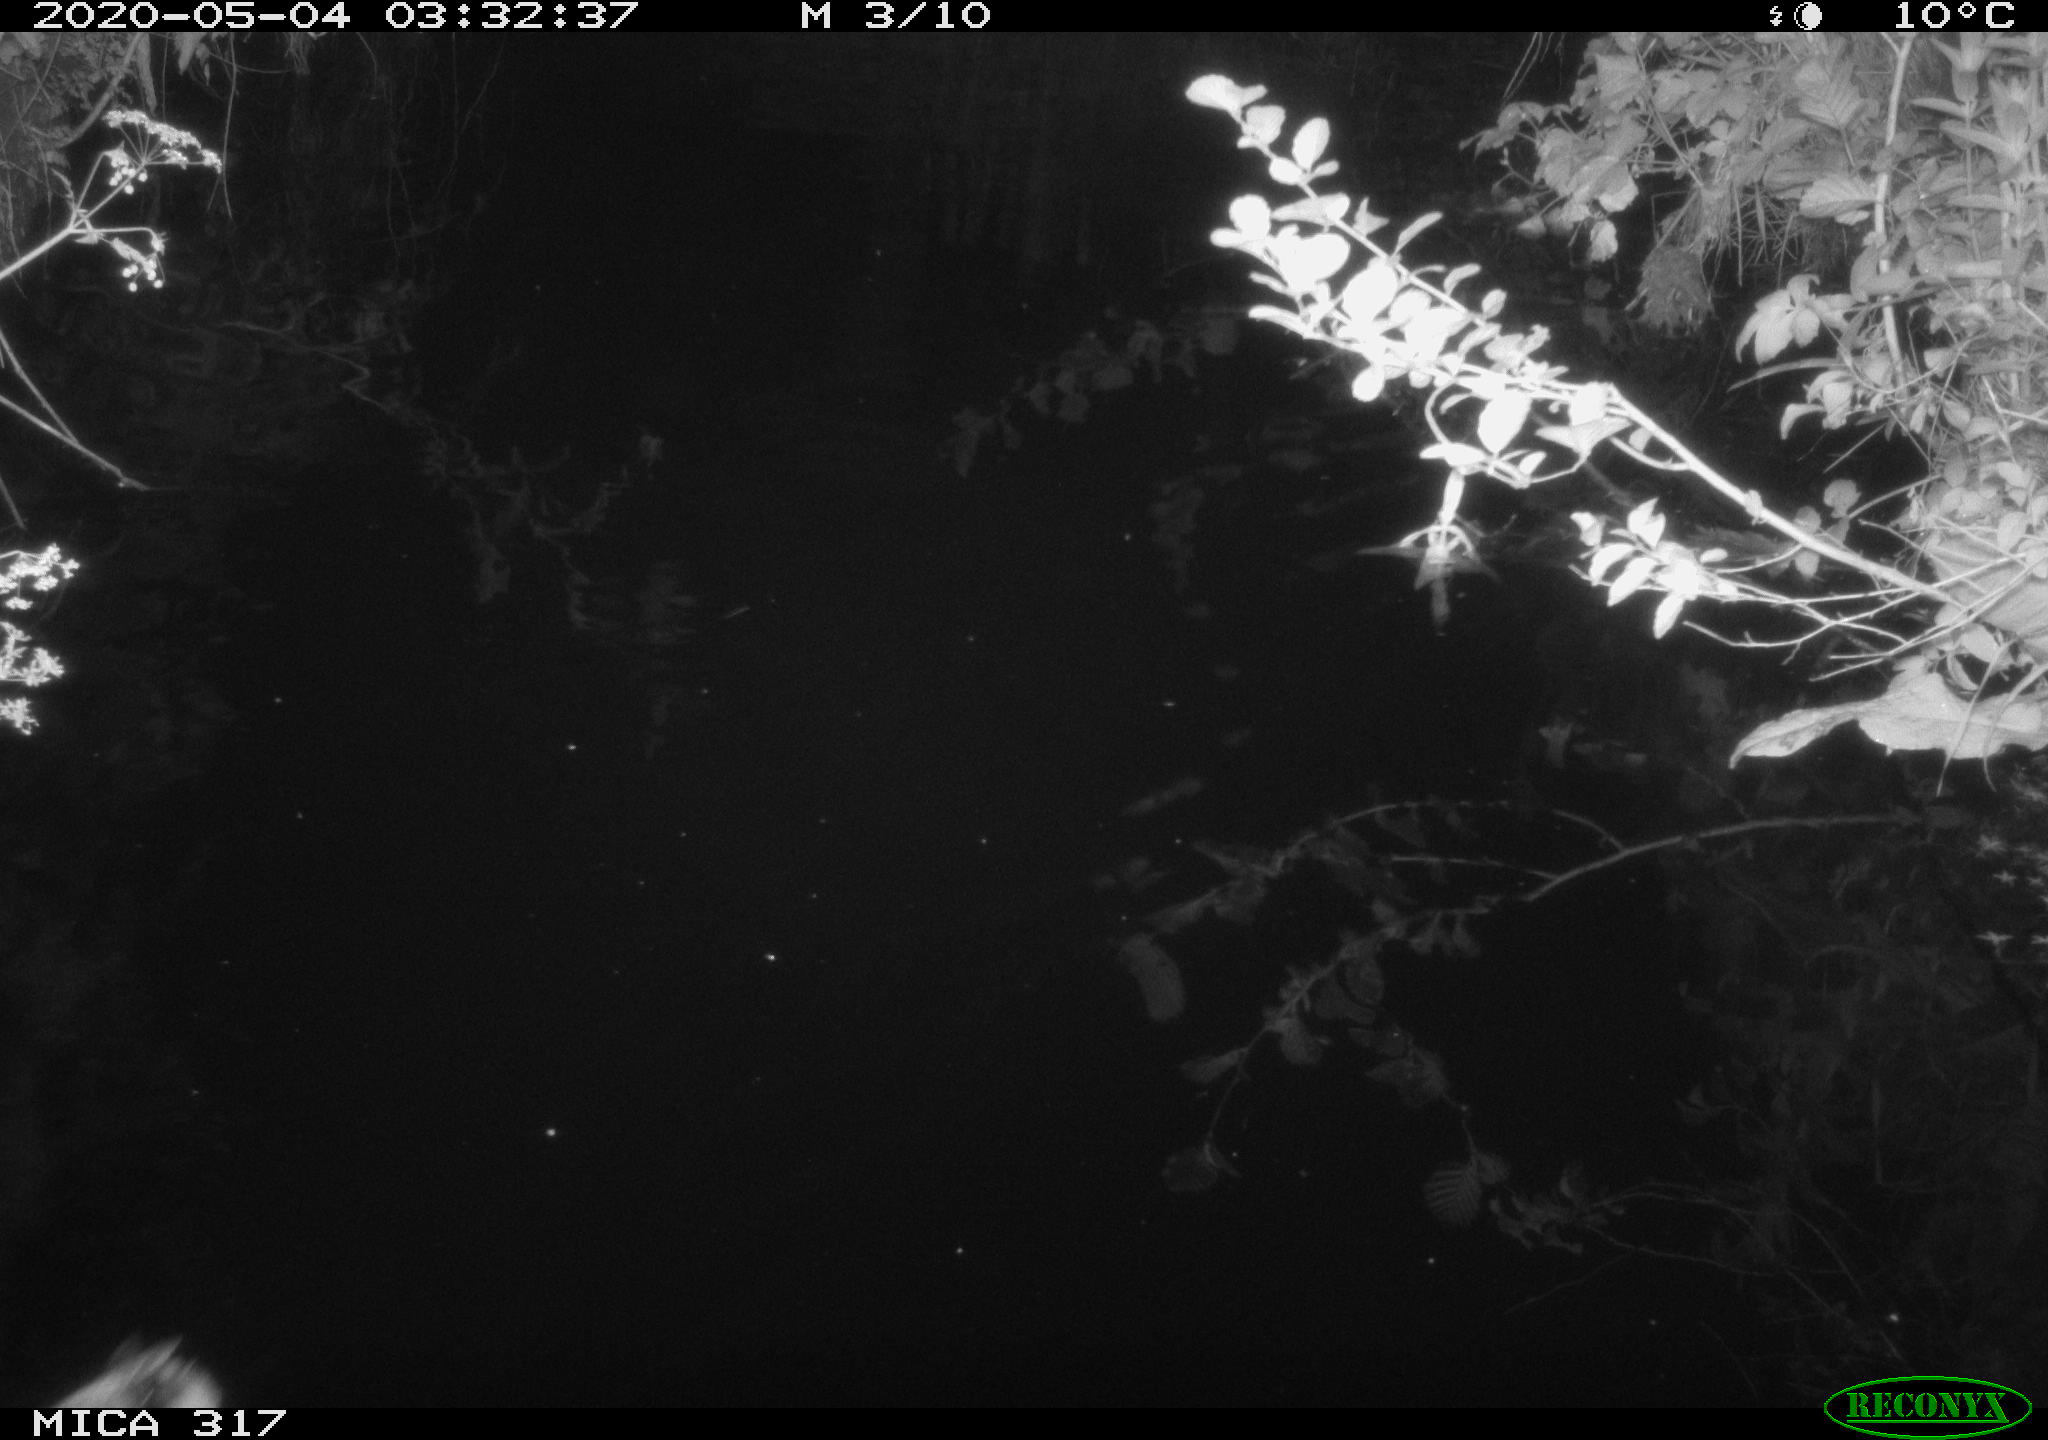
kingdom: Animalia
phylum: Chordata
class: Aves
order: Anseriformes
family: Anatidae
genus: Anas
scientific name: Anas platyrhynchos
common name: Mallard
